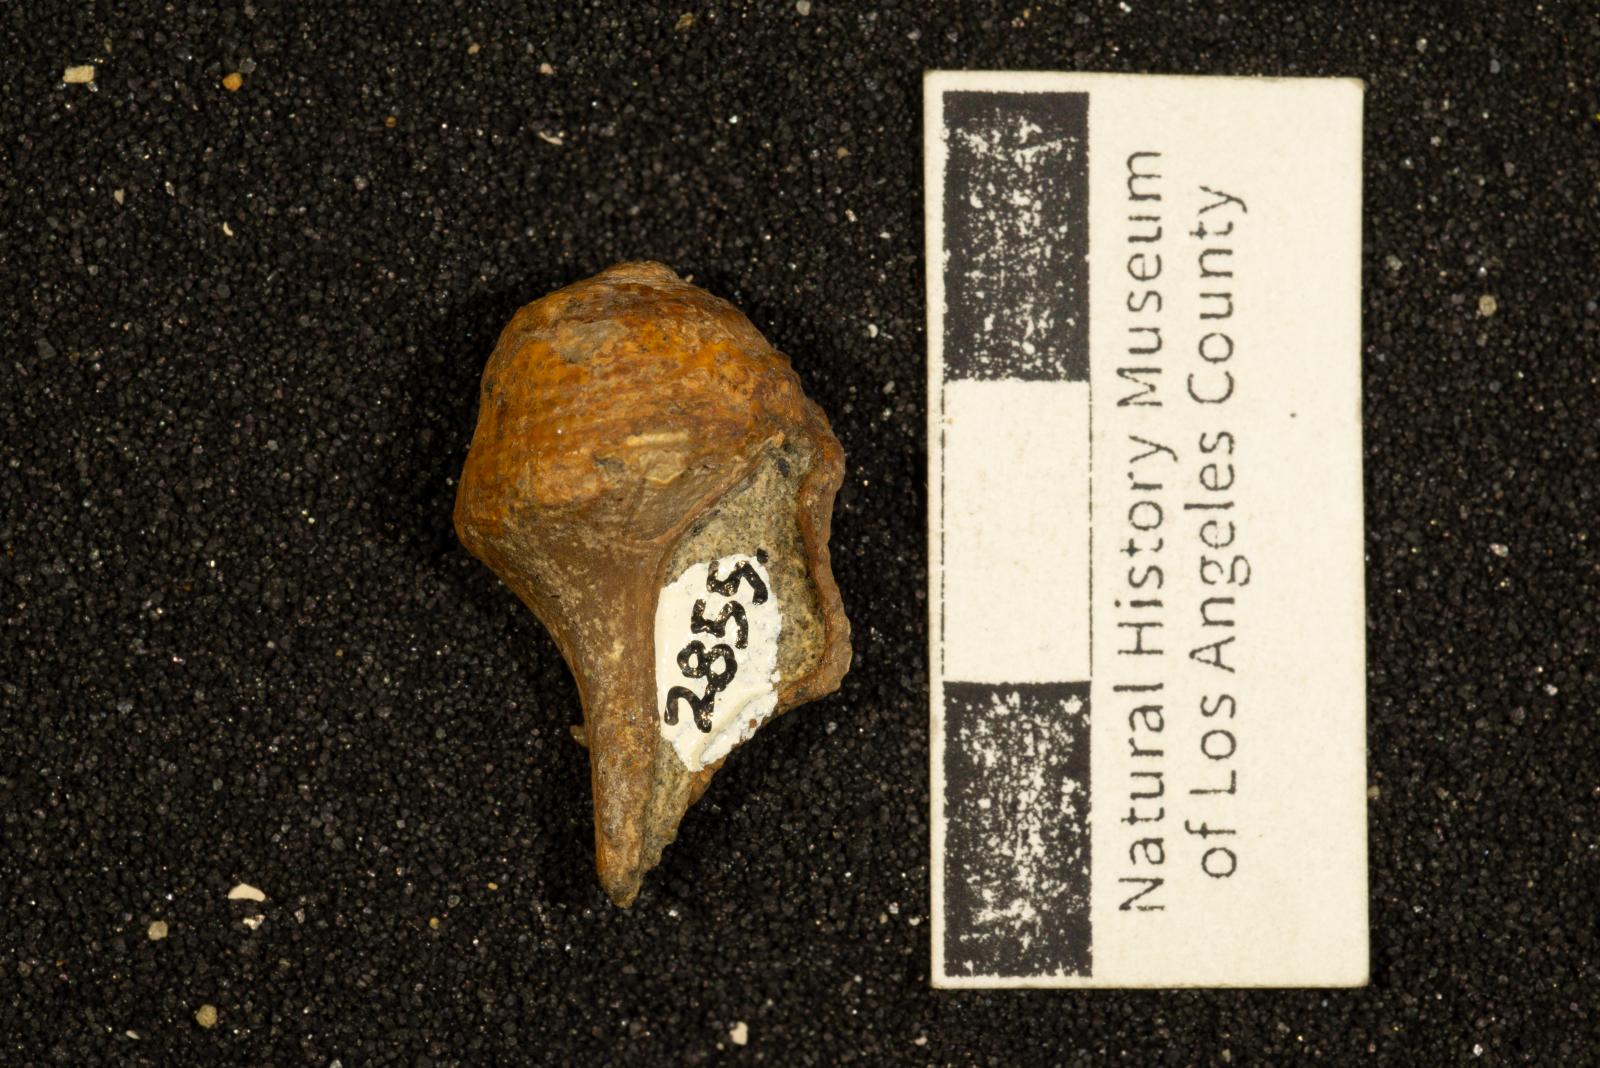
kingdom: Animalia
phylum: Mollusca
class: Gastropoda
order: Neogastropoda
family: Perissityidae
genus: Perissitys
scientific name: Perissitys colocara
